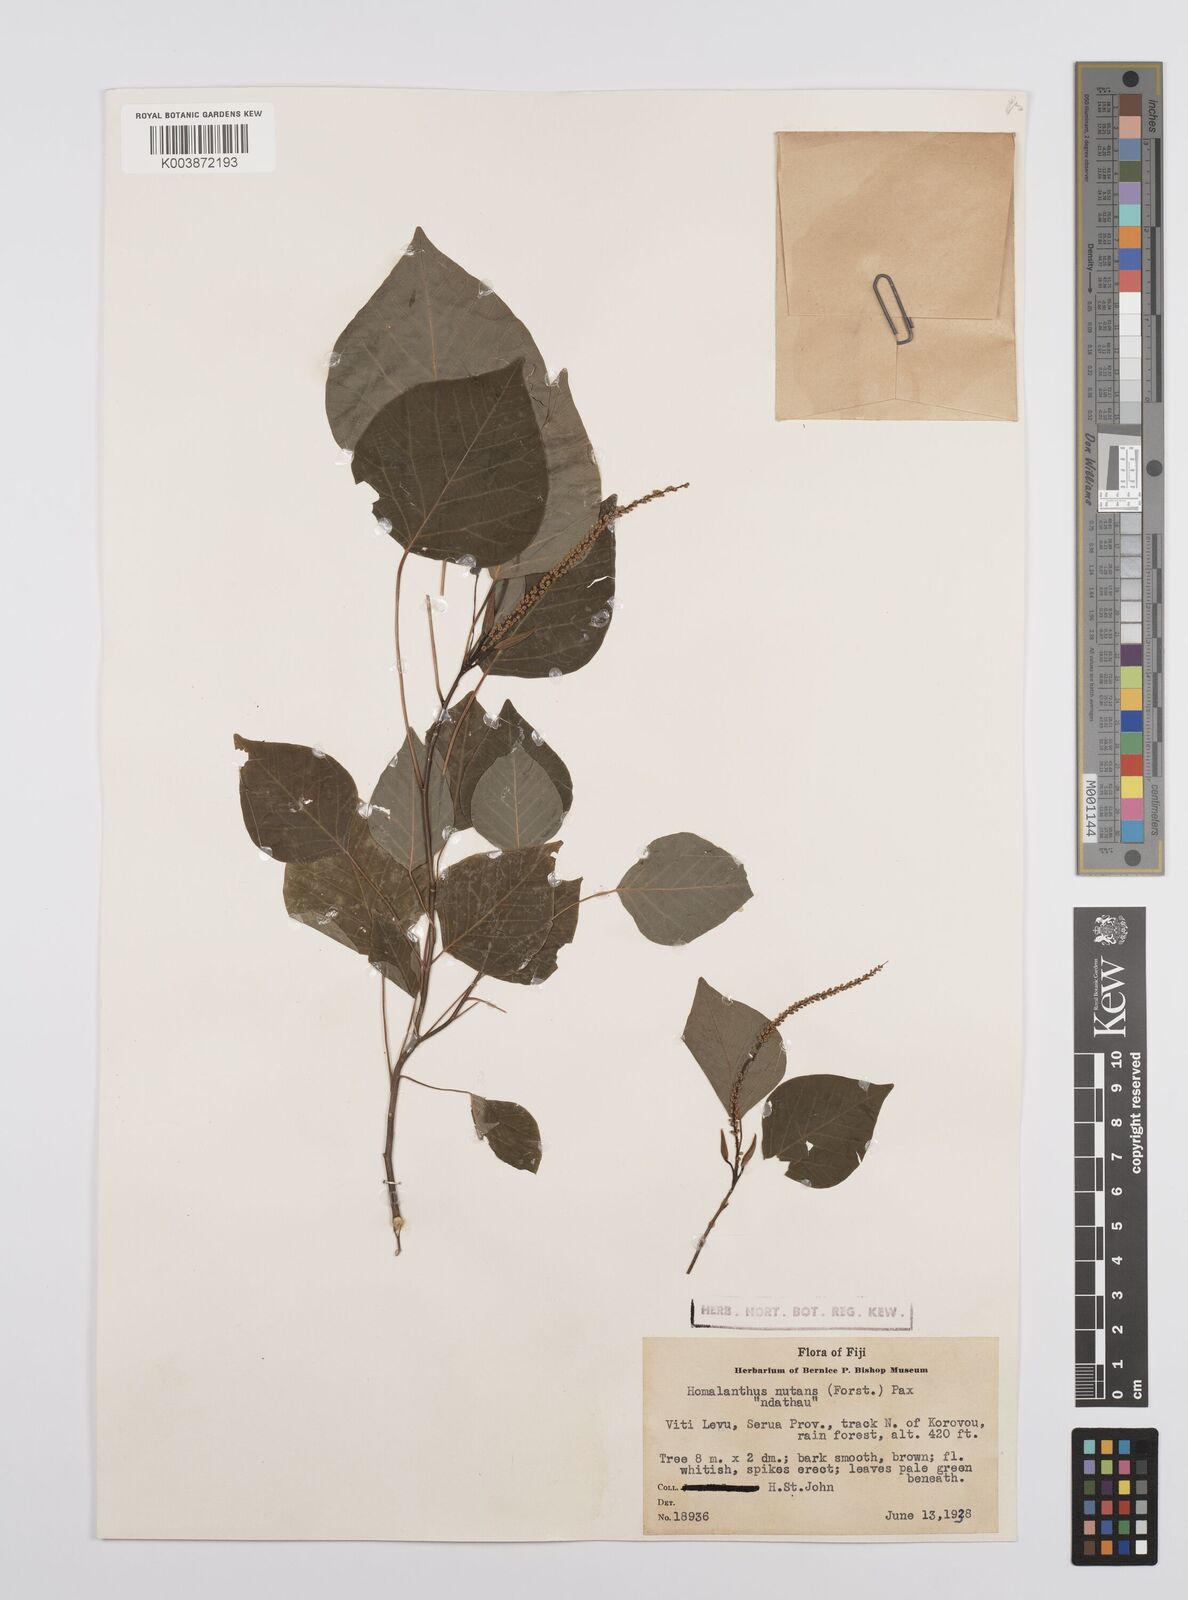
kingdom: Plantae
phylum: Tracheophyta
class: Magnoliopsida
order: Malpighiales
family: Euphorbiaceae
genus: Homalanthus
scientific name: Homalanthus nutans
